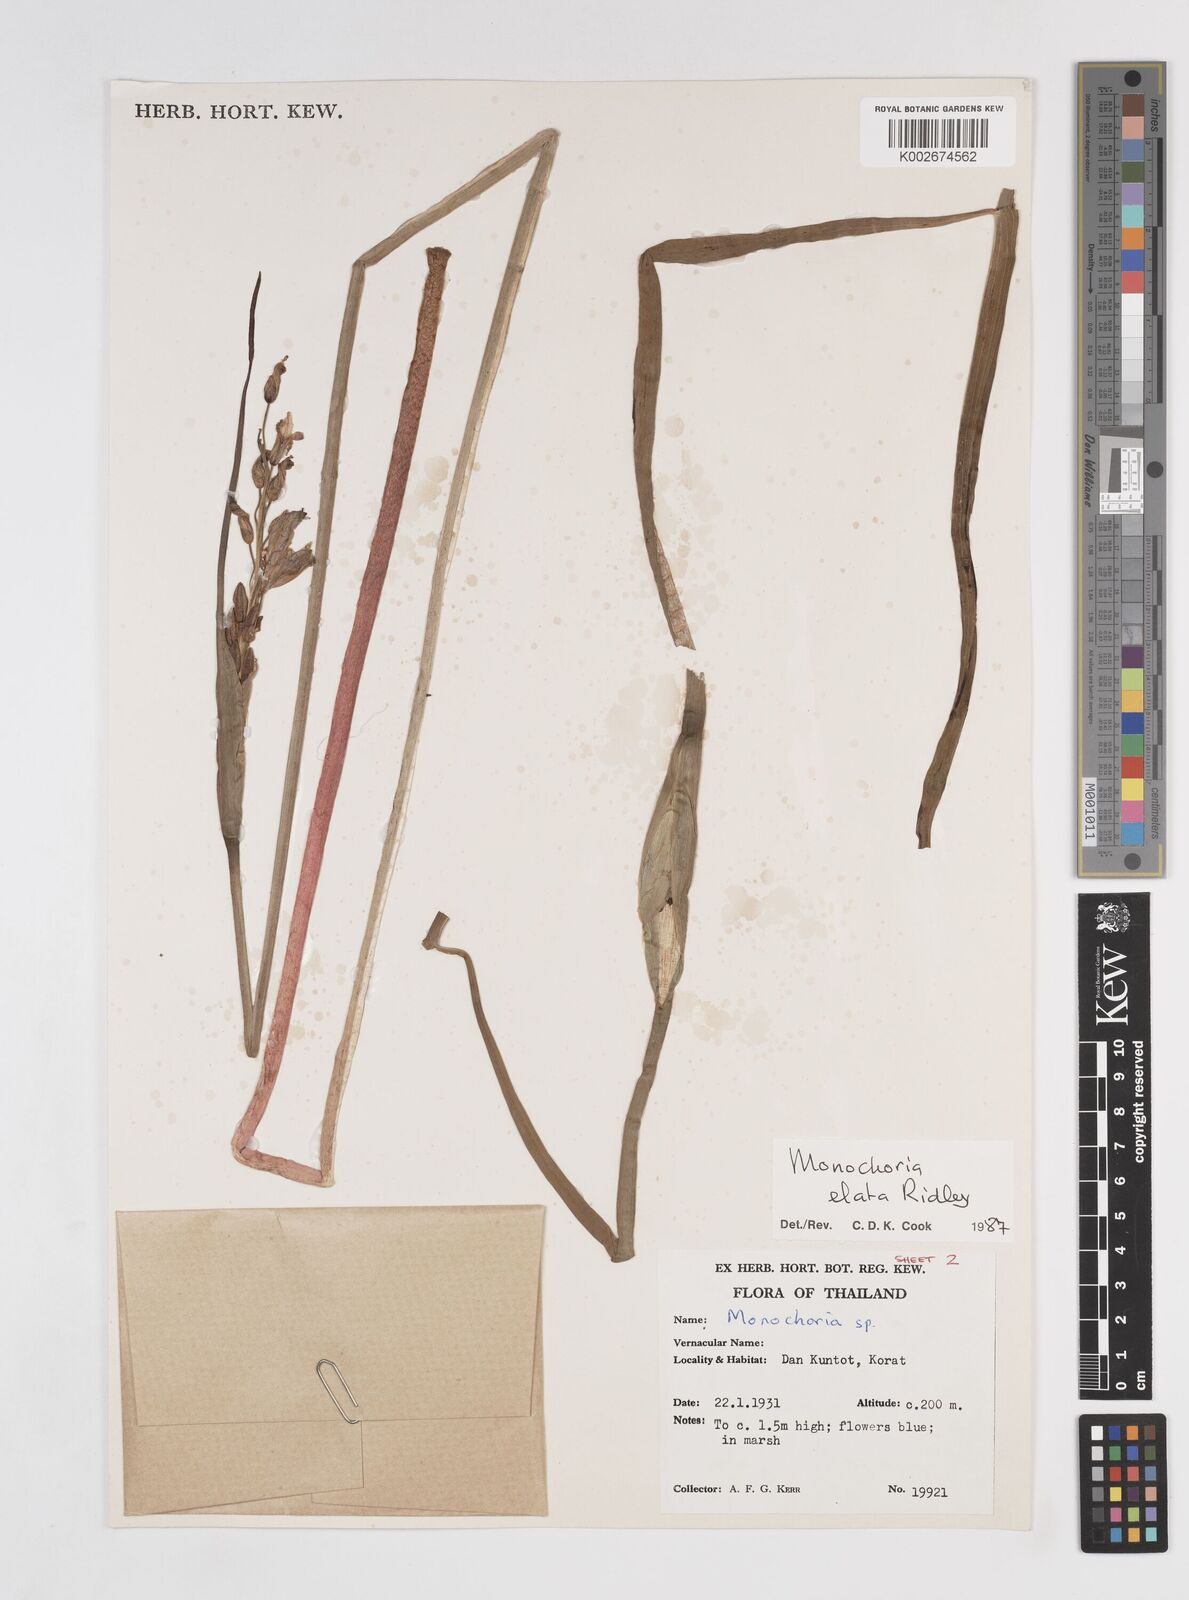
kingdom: Plantae
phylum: Tracheophyta
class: Liliopsida
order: Commelinales
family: Pontederiaceae
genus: Pontederia
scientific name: Pontederia elata
